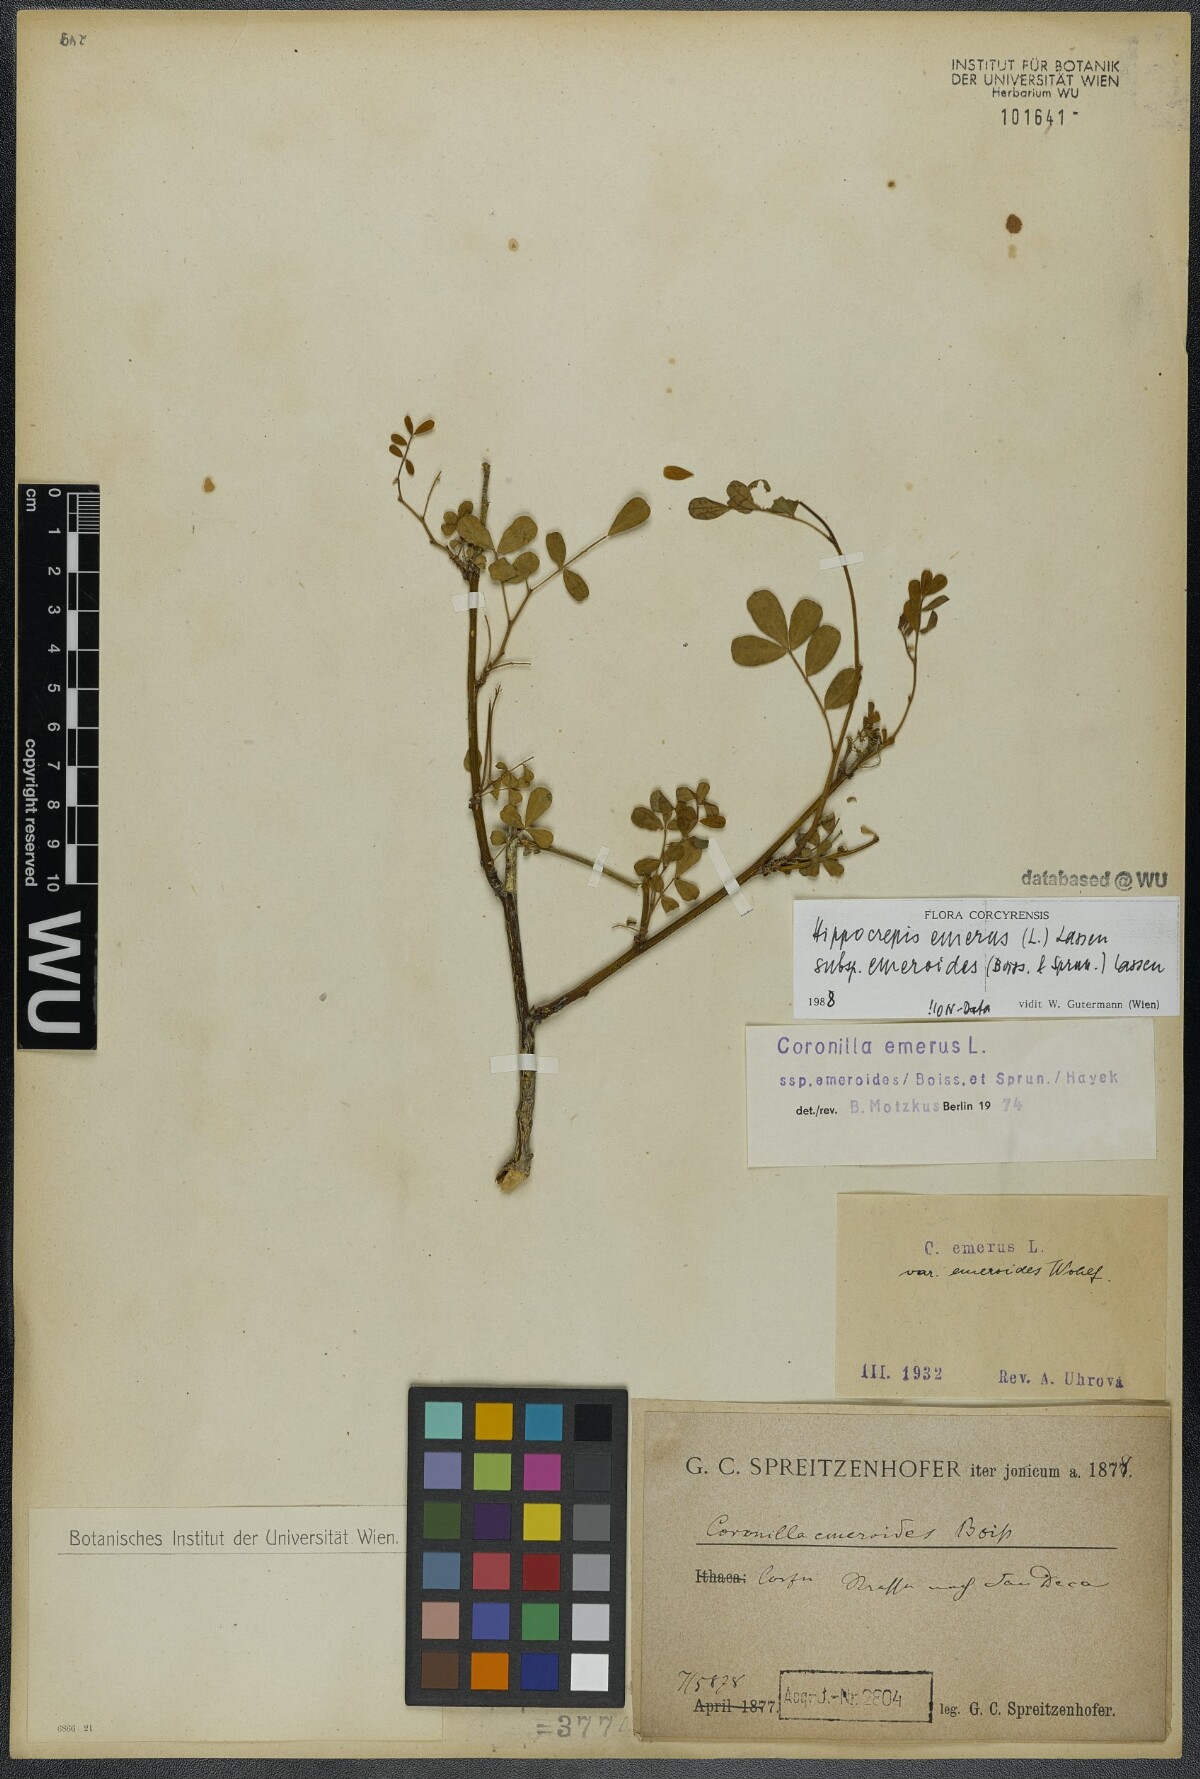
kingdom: Plantae
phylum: Tracheophyta
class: Magnoliopsida
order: Fabales
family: Fabaceae
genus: Hippocrepis
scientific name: Hippocrepis emerus
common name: Scorpion senna
